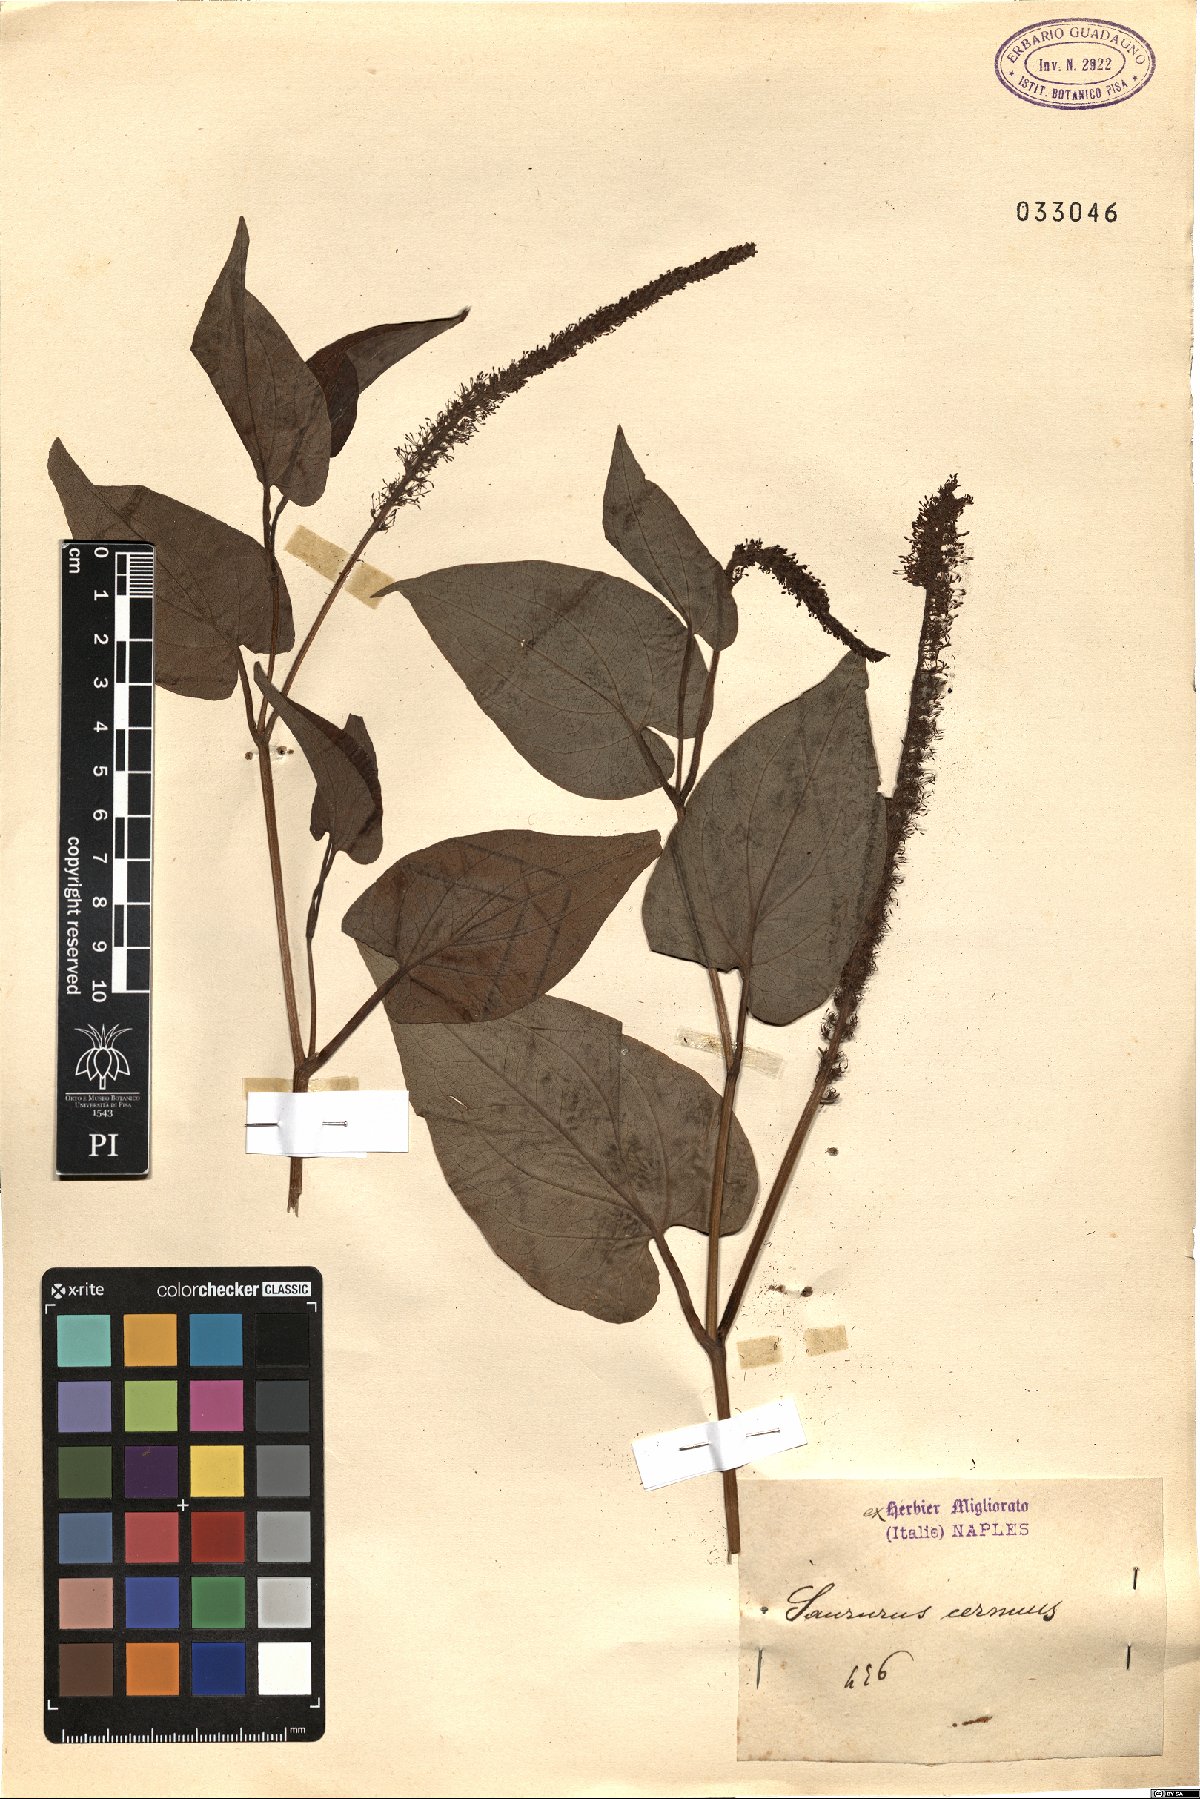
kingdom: Plantae
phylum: Tracheophyta
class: Magnoliopsida
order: Piperales
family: Saururaceae
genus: Saururus
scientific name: Saururus cernuus
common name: Lizard's-tail
